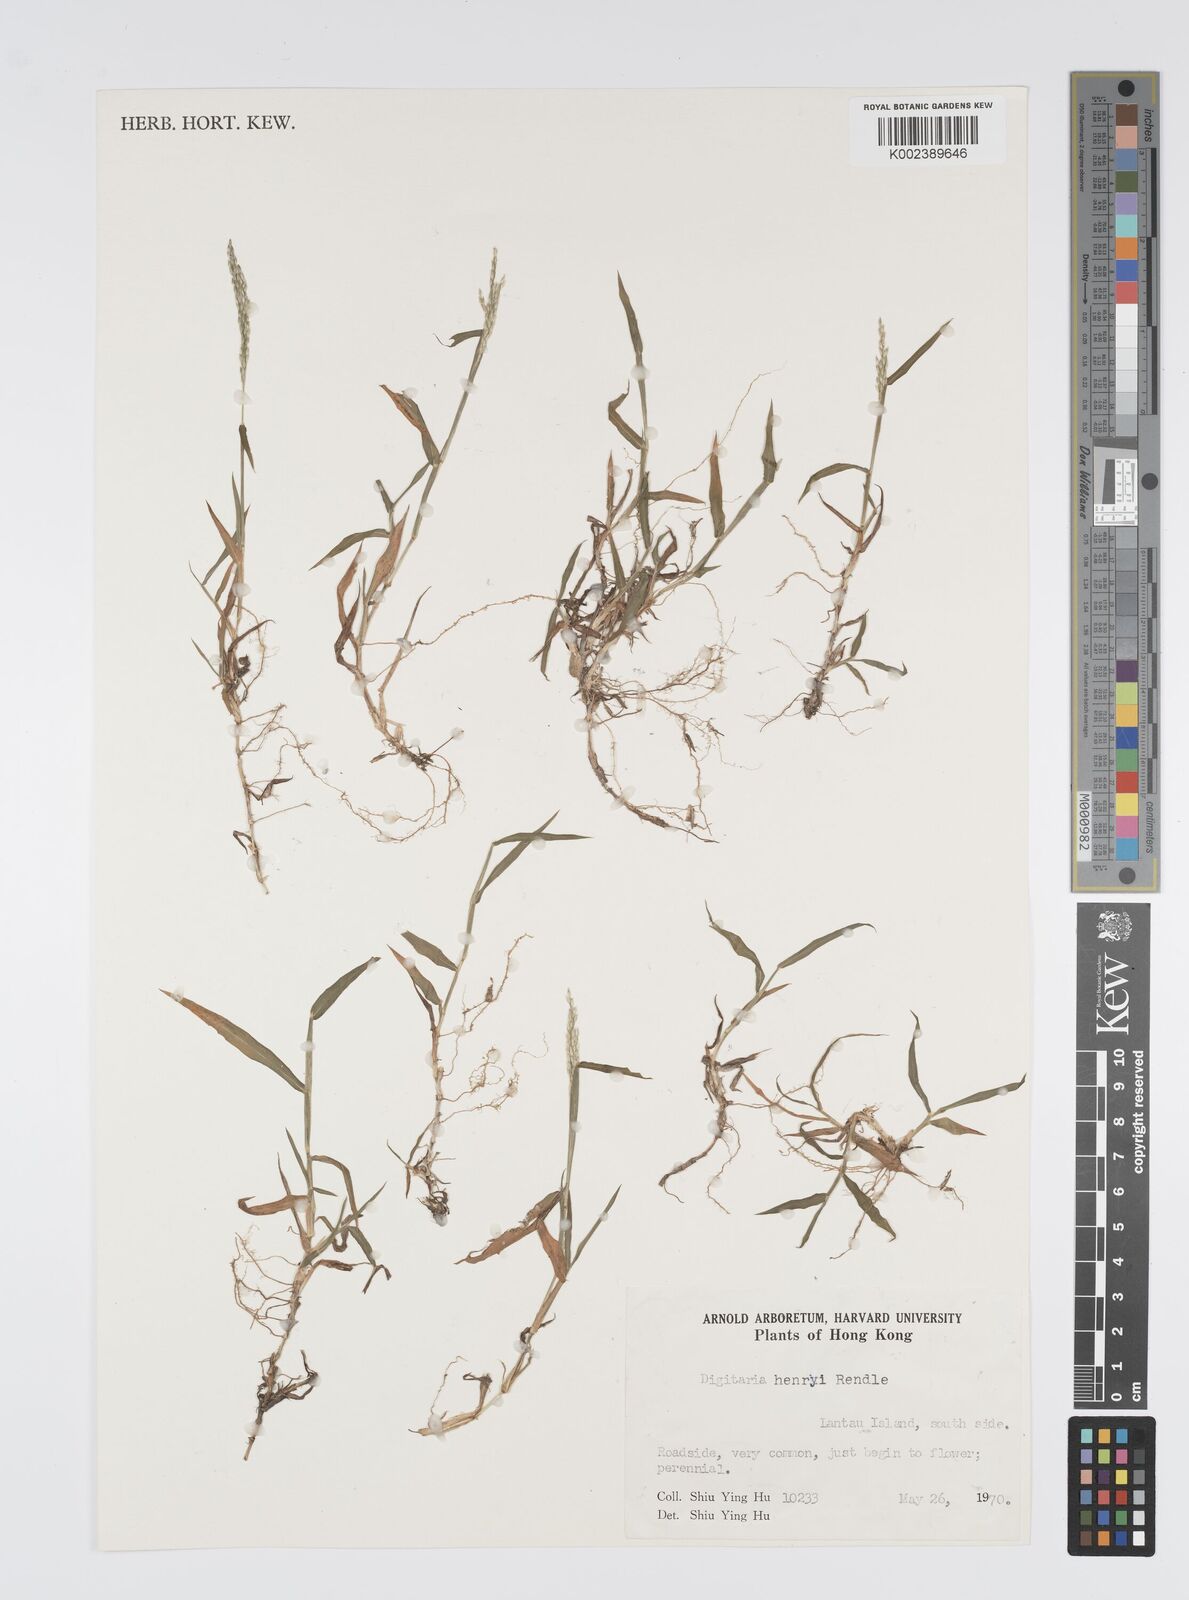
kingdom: Plantae
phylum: Tracheophyta
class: Liliopsida
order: Poales
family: Poaceae
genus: Digitaria
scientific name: Digitaria ciliaris
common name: Tropical finger-grass
